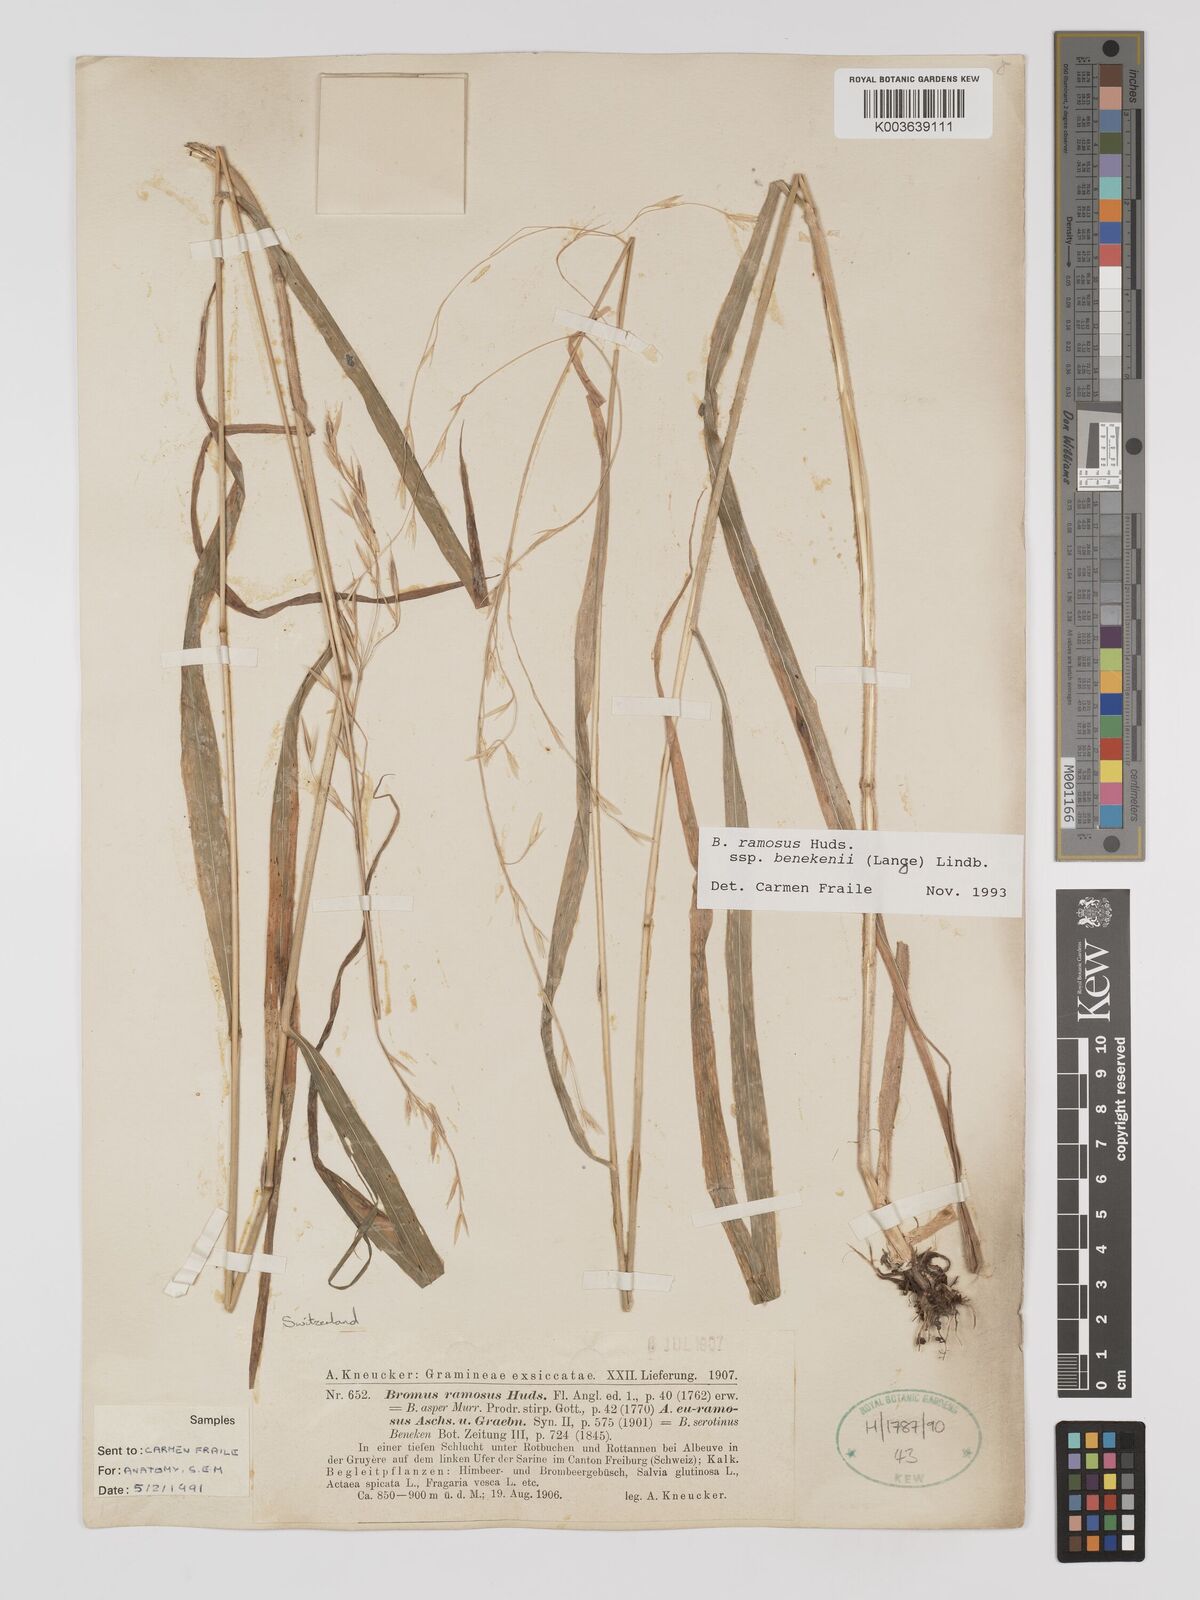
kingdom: Plantae
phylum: Tracheophyta
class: Liliopsida
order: Poales
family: Poaceae
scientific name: Poaceae
